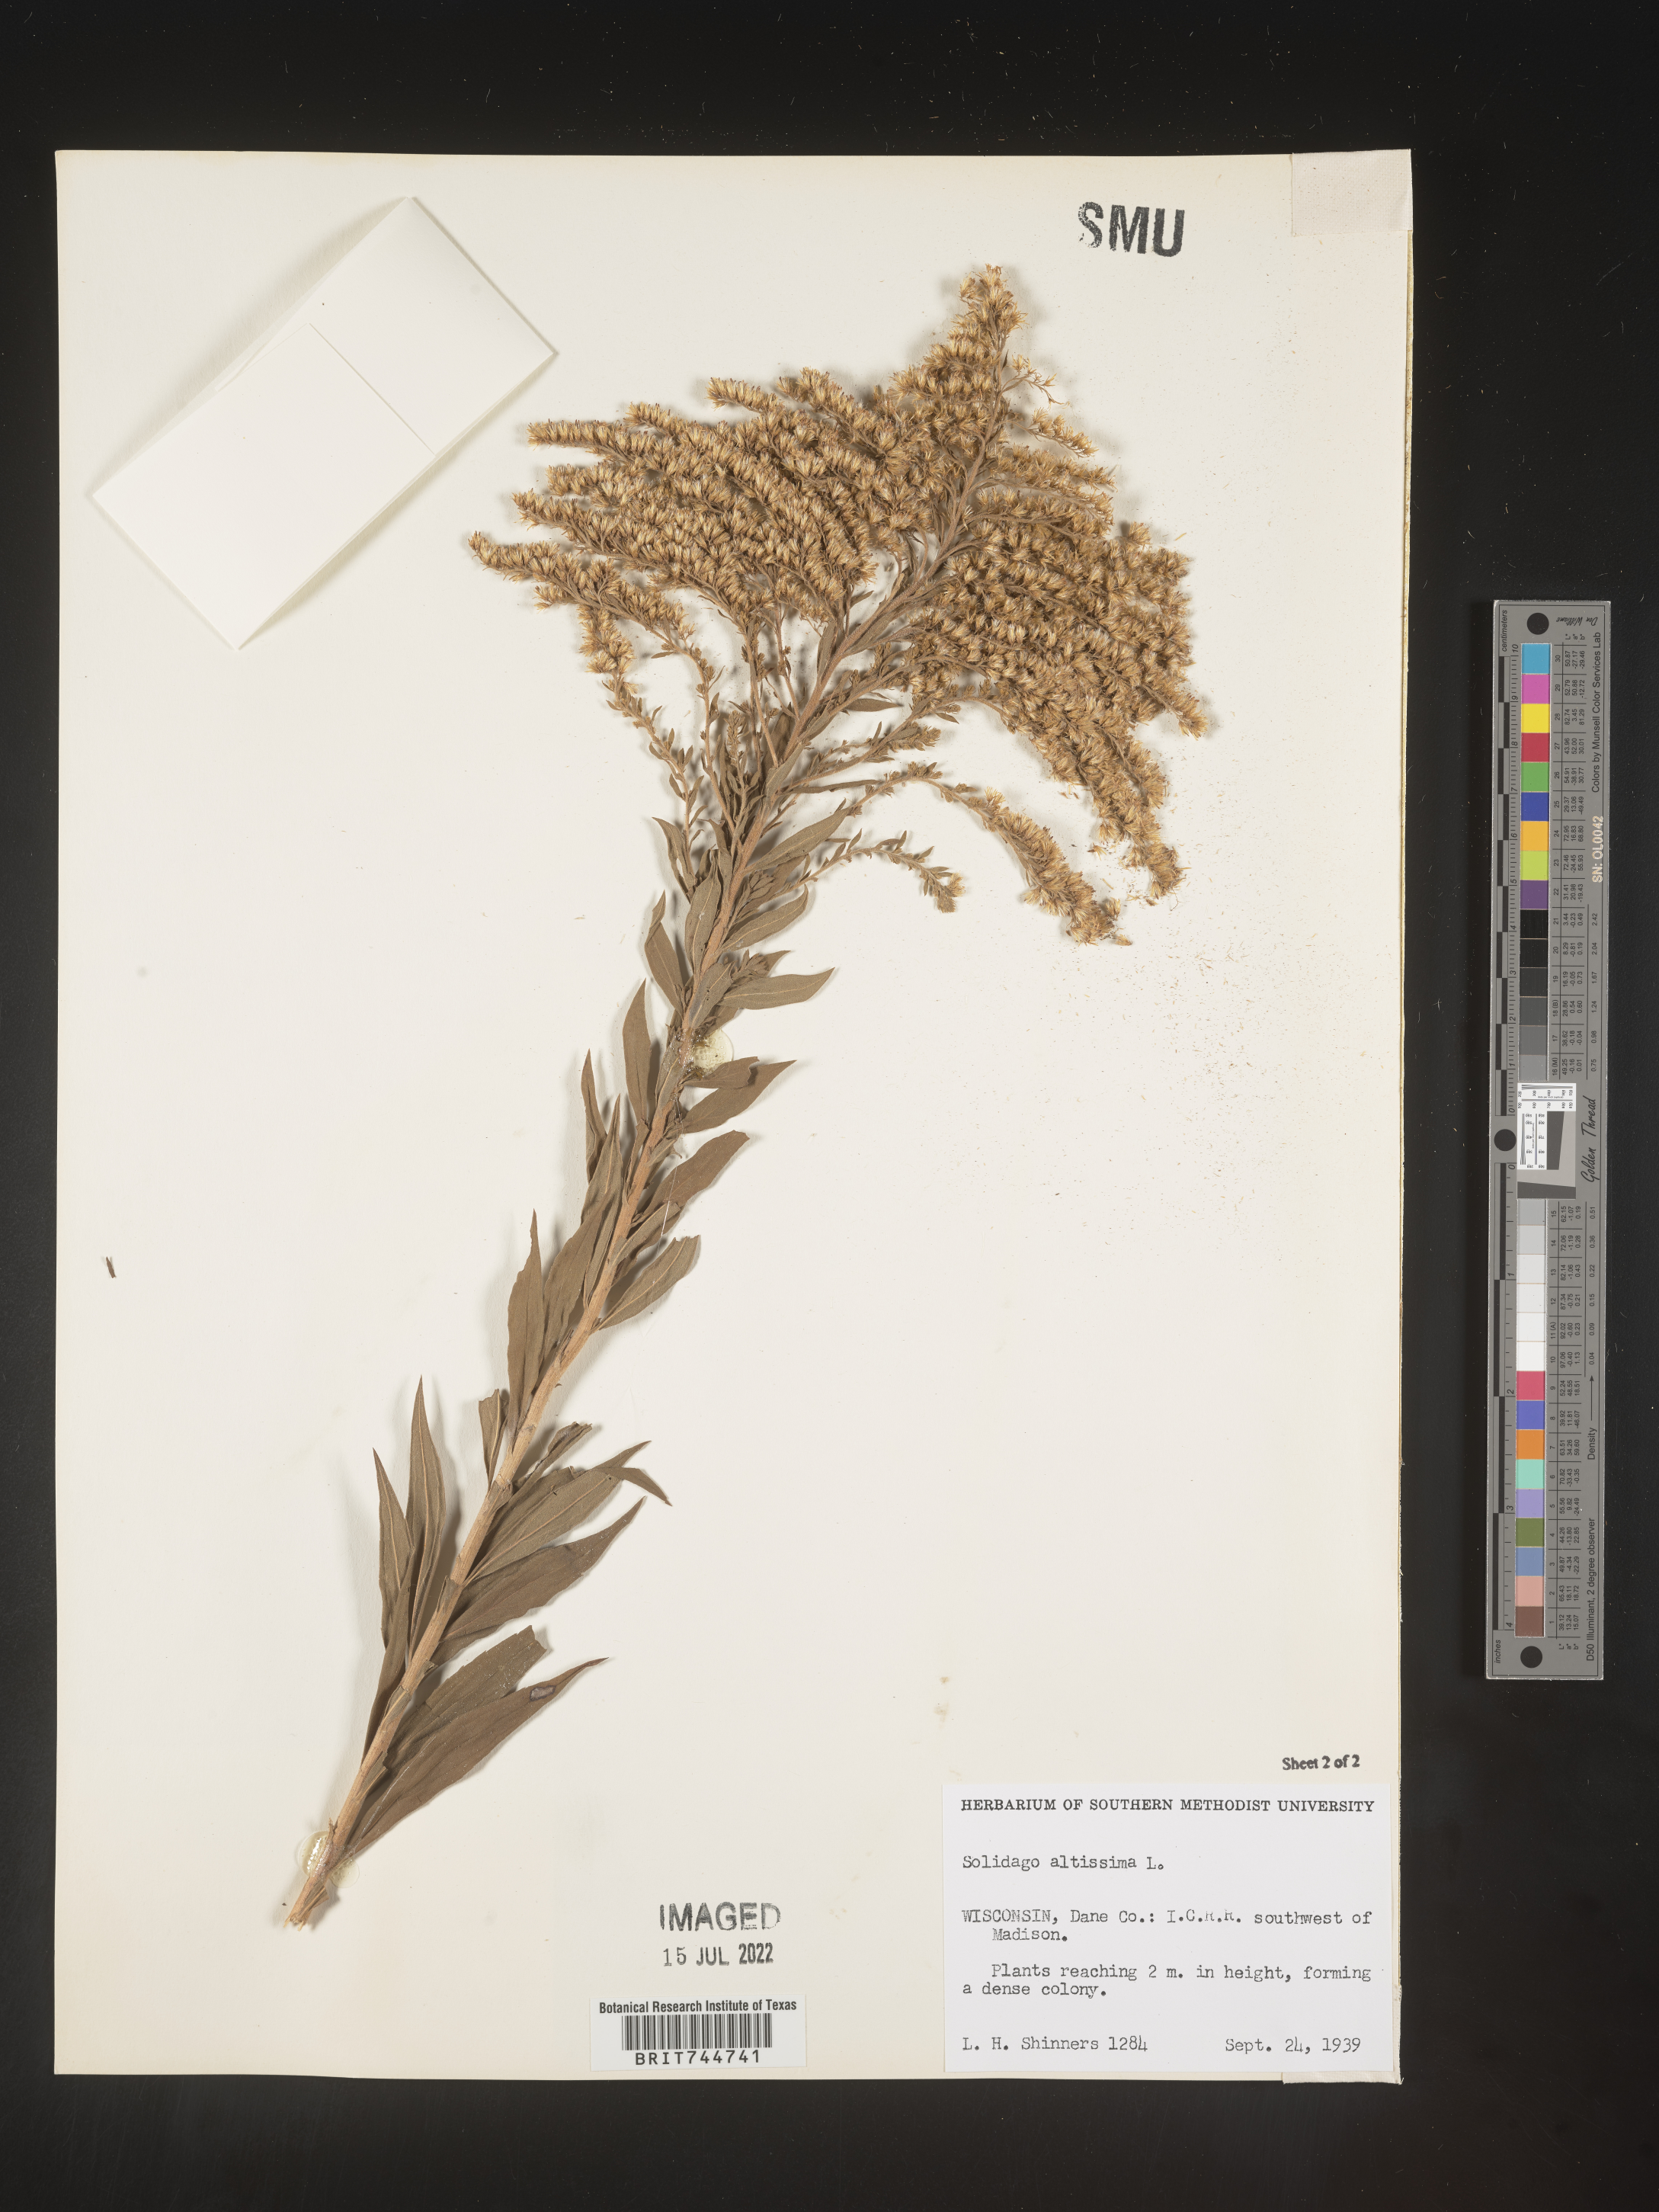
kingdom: Plantae
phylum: Tracheophyta
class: Magnoliopsida
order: Asterales
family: Asteraceae
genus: Solidago
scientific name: Solidago canadensis
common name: Canada goldenrod
